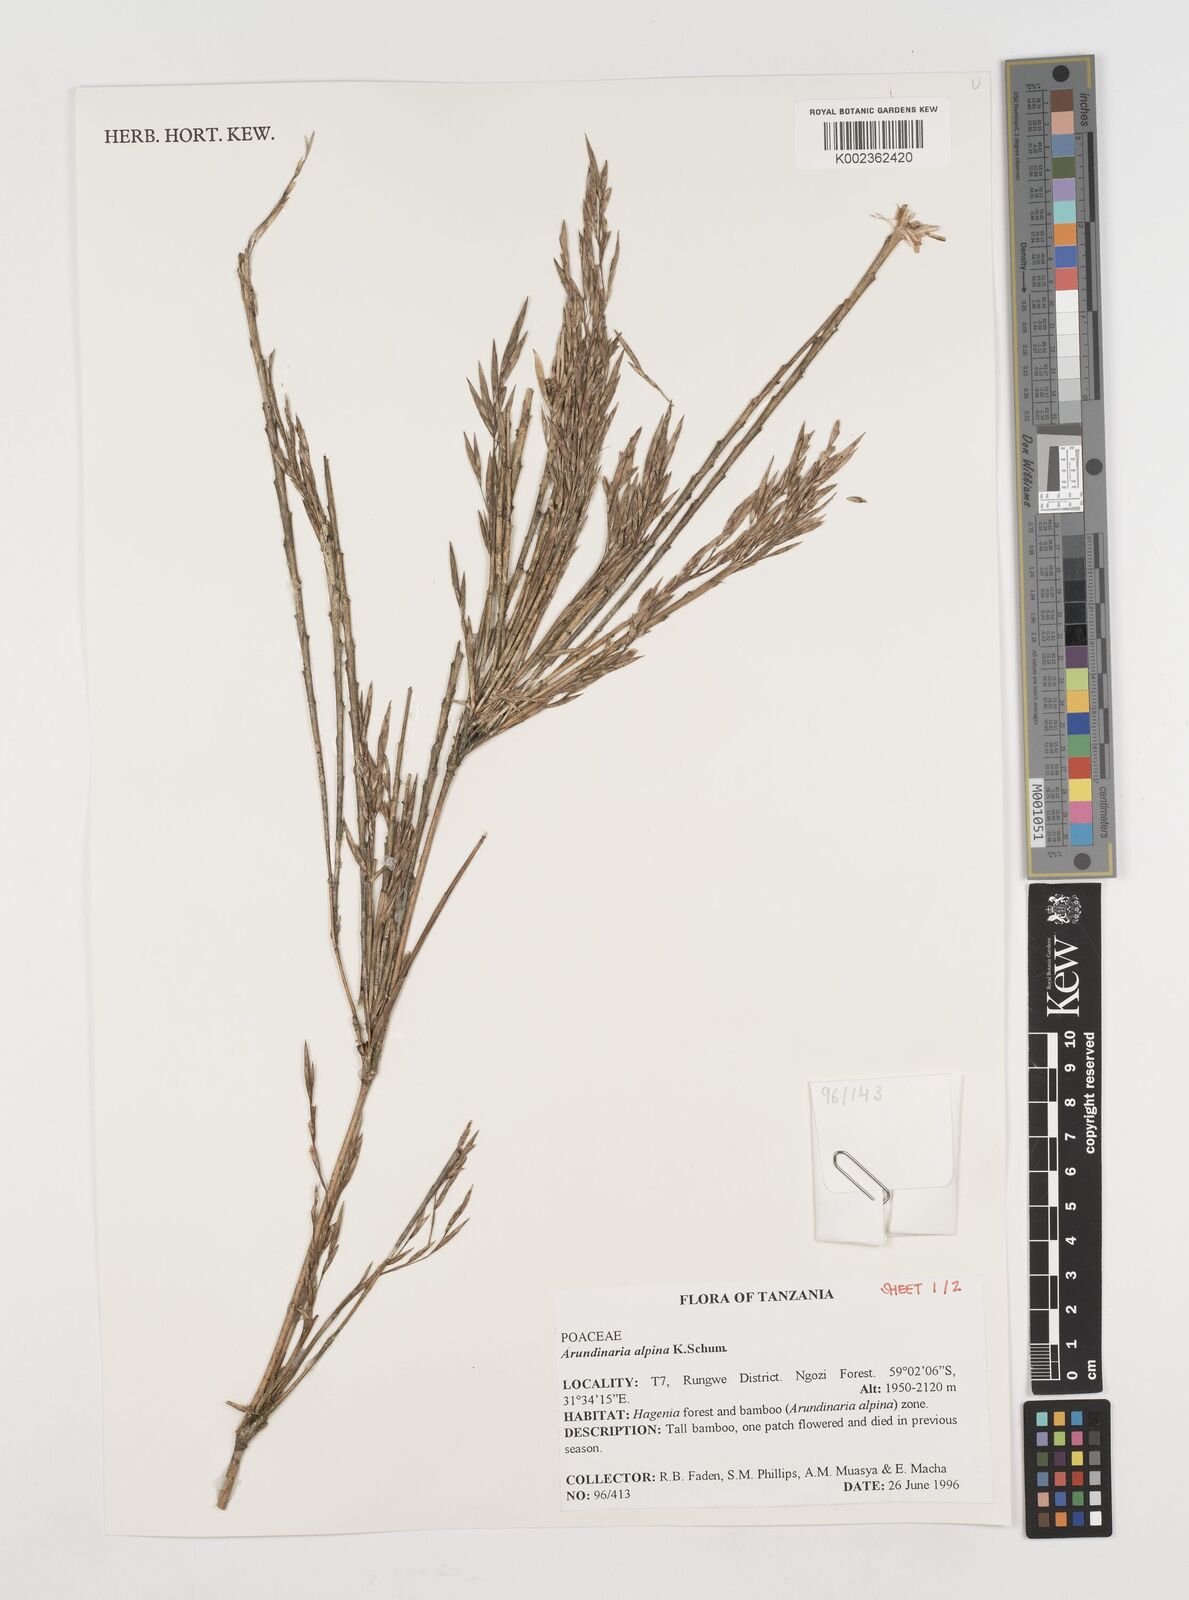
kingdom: Plantae
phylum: Tracheophyta
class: Liliopsida
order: Poales
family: Poaceae
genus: Oldeania
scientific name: Oldeania alpina
